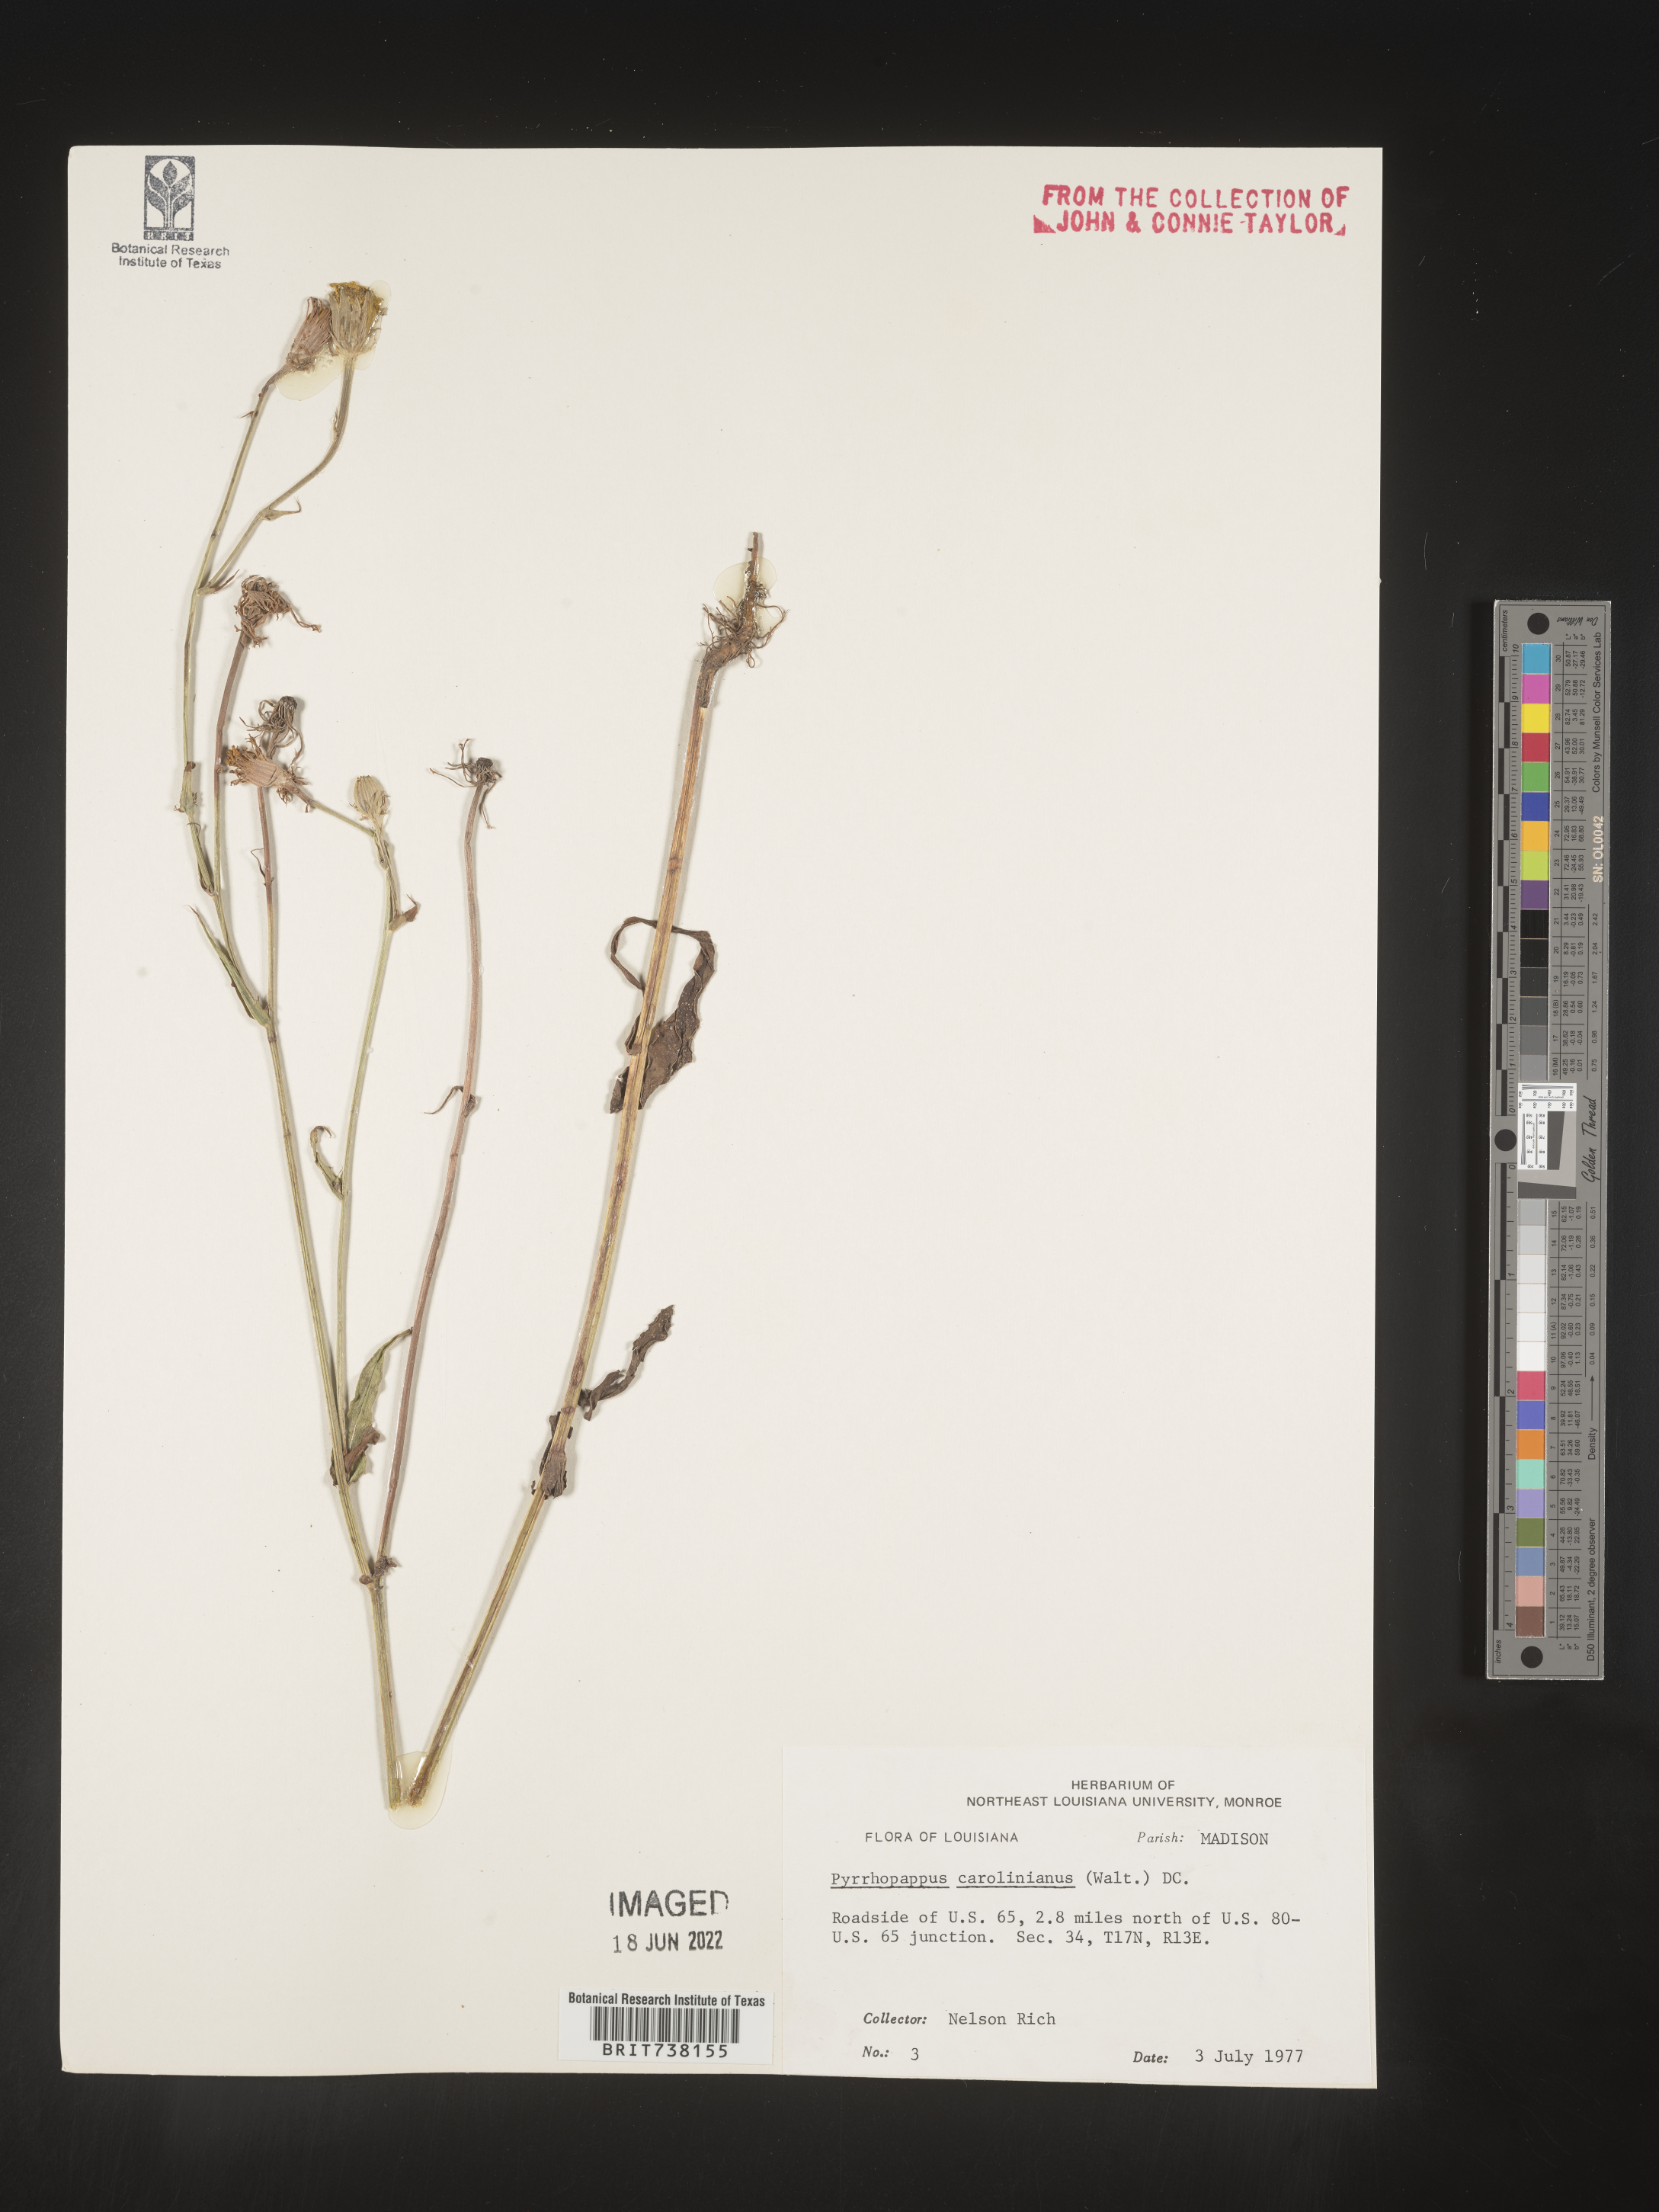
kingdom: Plantae
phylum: Tracheophyta
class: Magnoliopsida
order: Asterales
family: Asteraceae
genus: Pyrrhopappus
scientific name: Pyrrhopappus carolinianus
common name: Carolina desert-chicory
